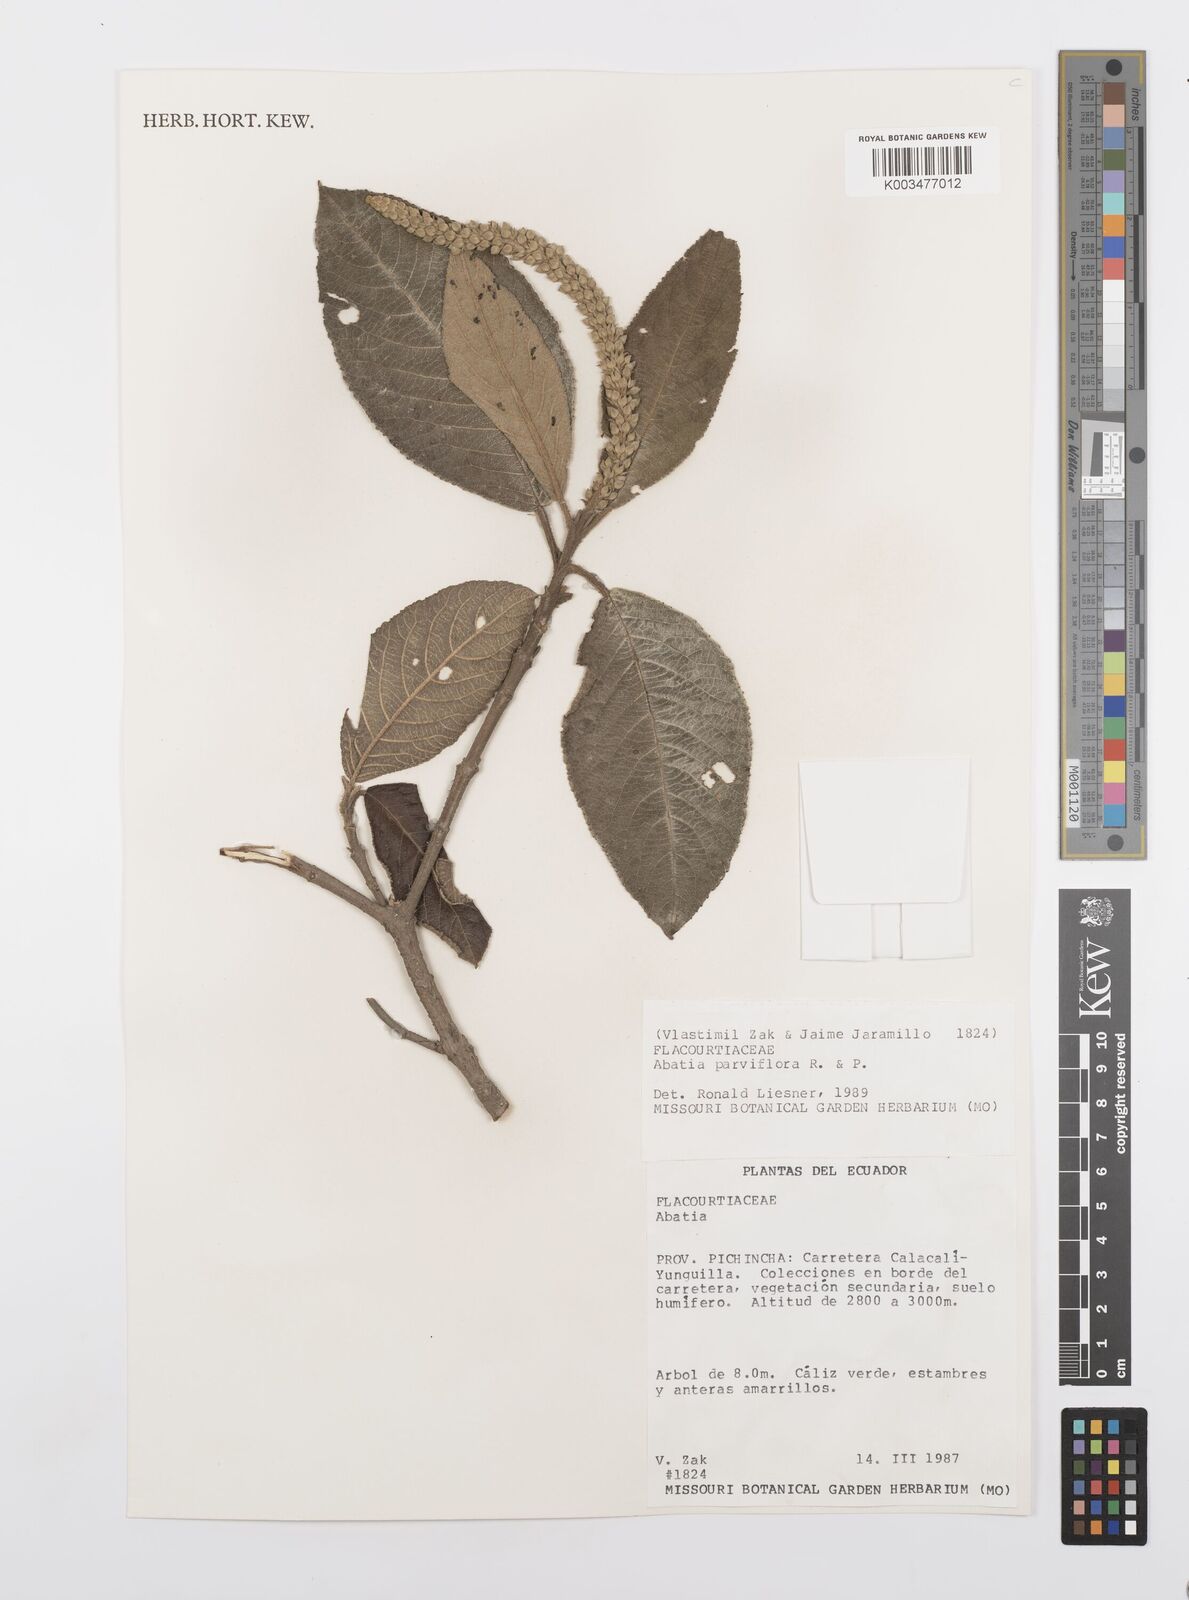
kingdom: Plantae
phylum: Tracheophyta
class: Magnoliopsida
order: Malpighiales
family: Salicaceae
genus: Abatia
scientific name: Abatia parviflora
